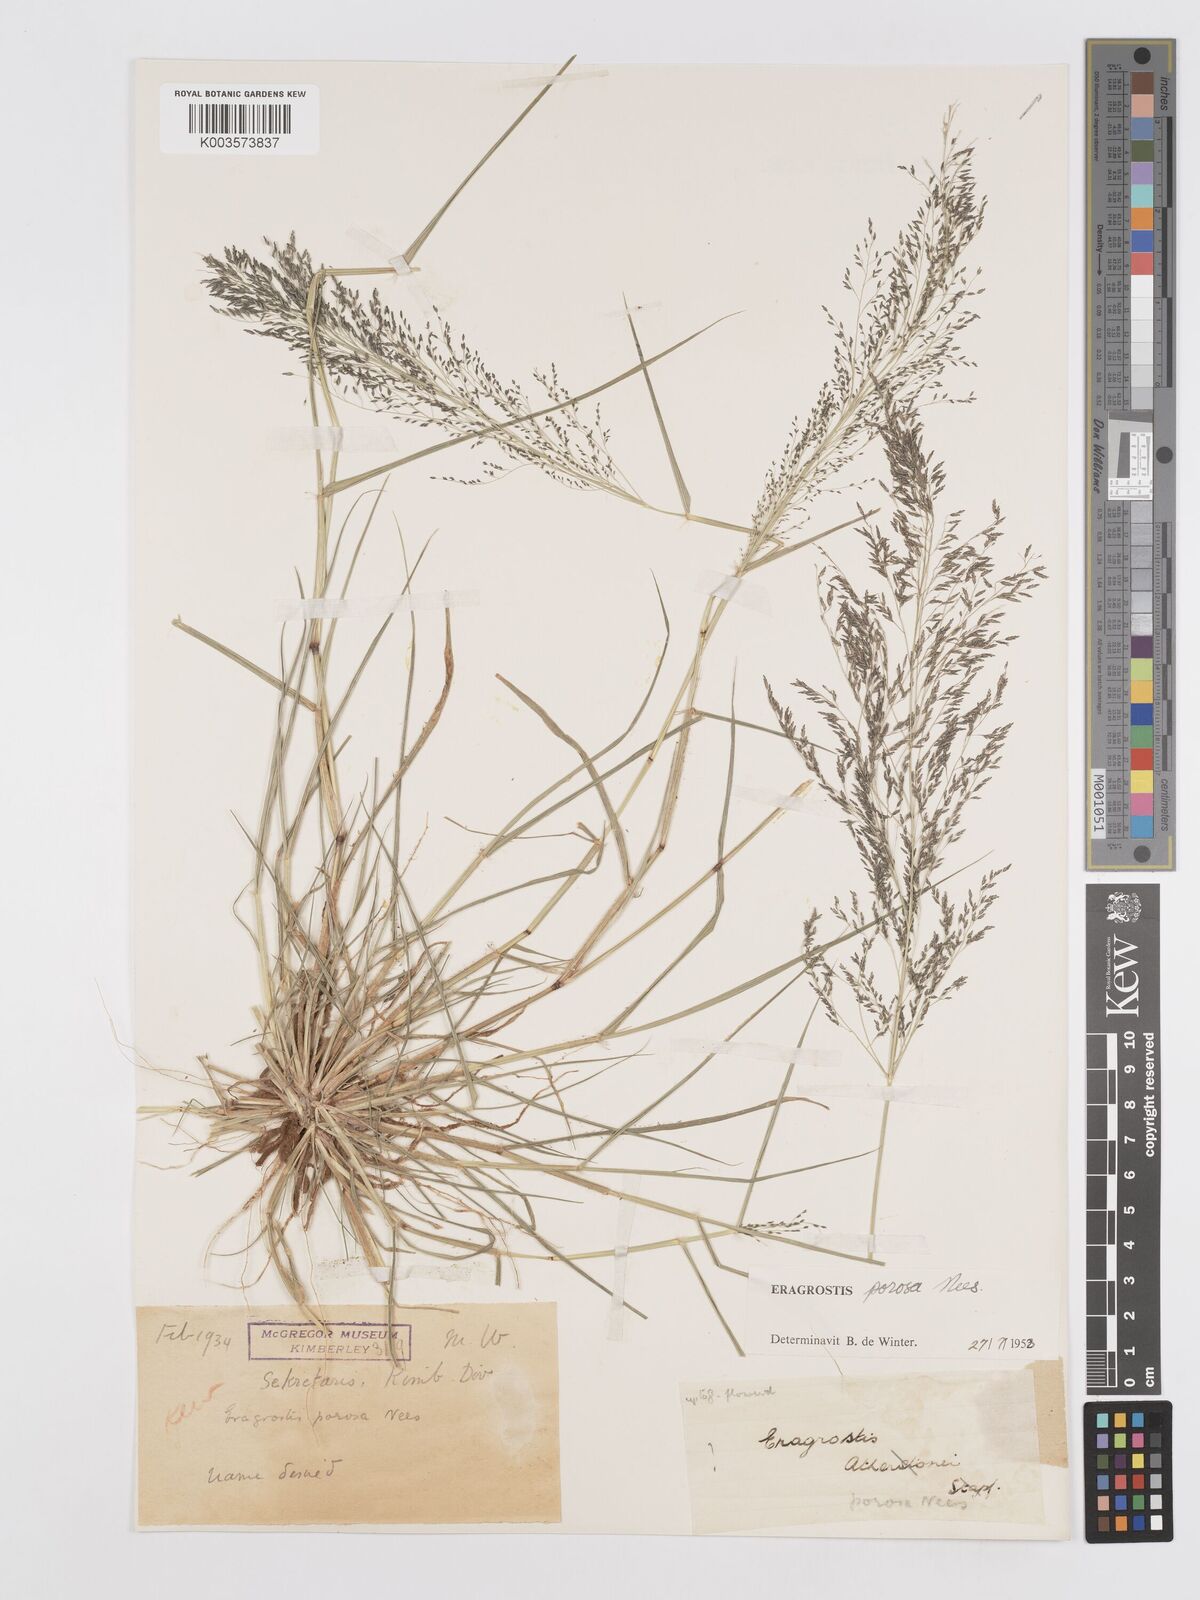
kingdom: Plantae
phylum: Tracheophyta
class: Liliopsida
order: Poales
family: Poaceae
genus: Eragrostis
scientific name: Eragrostis porosa
